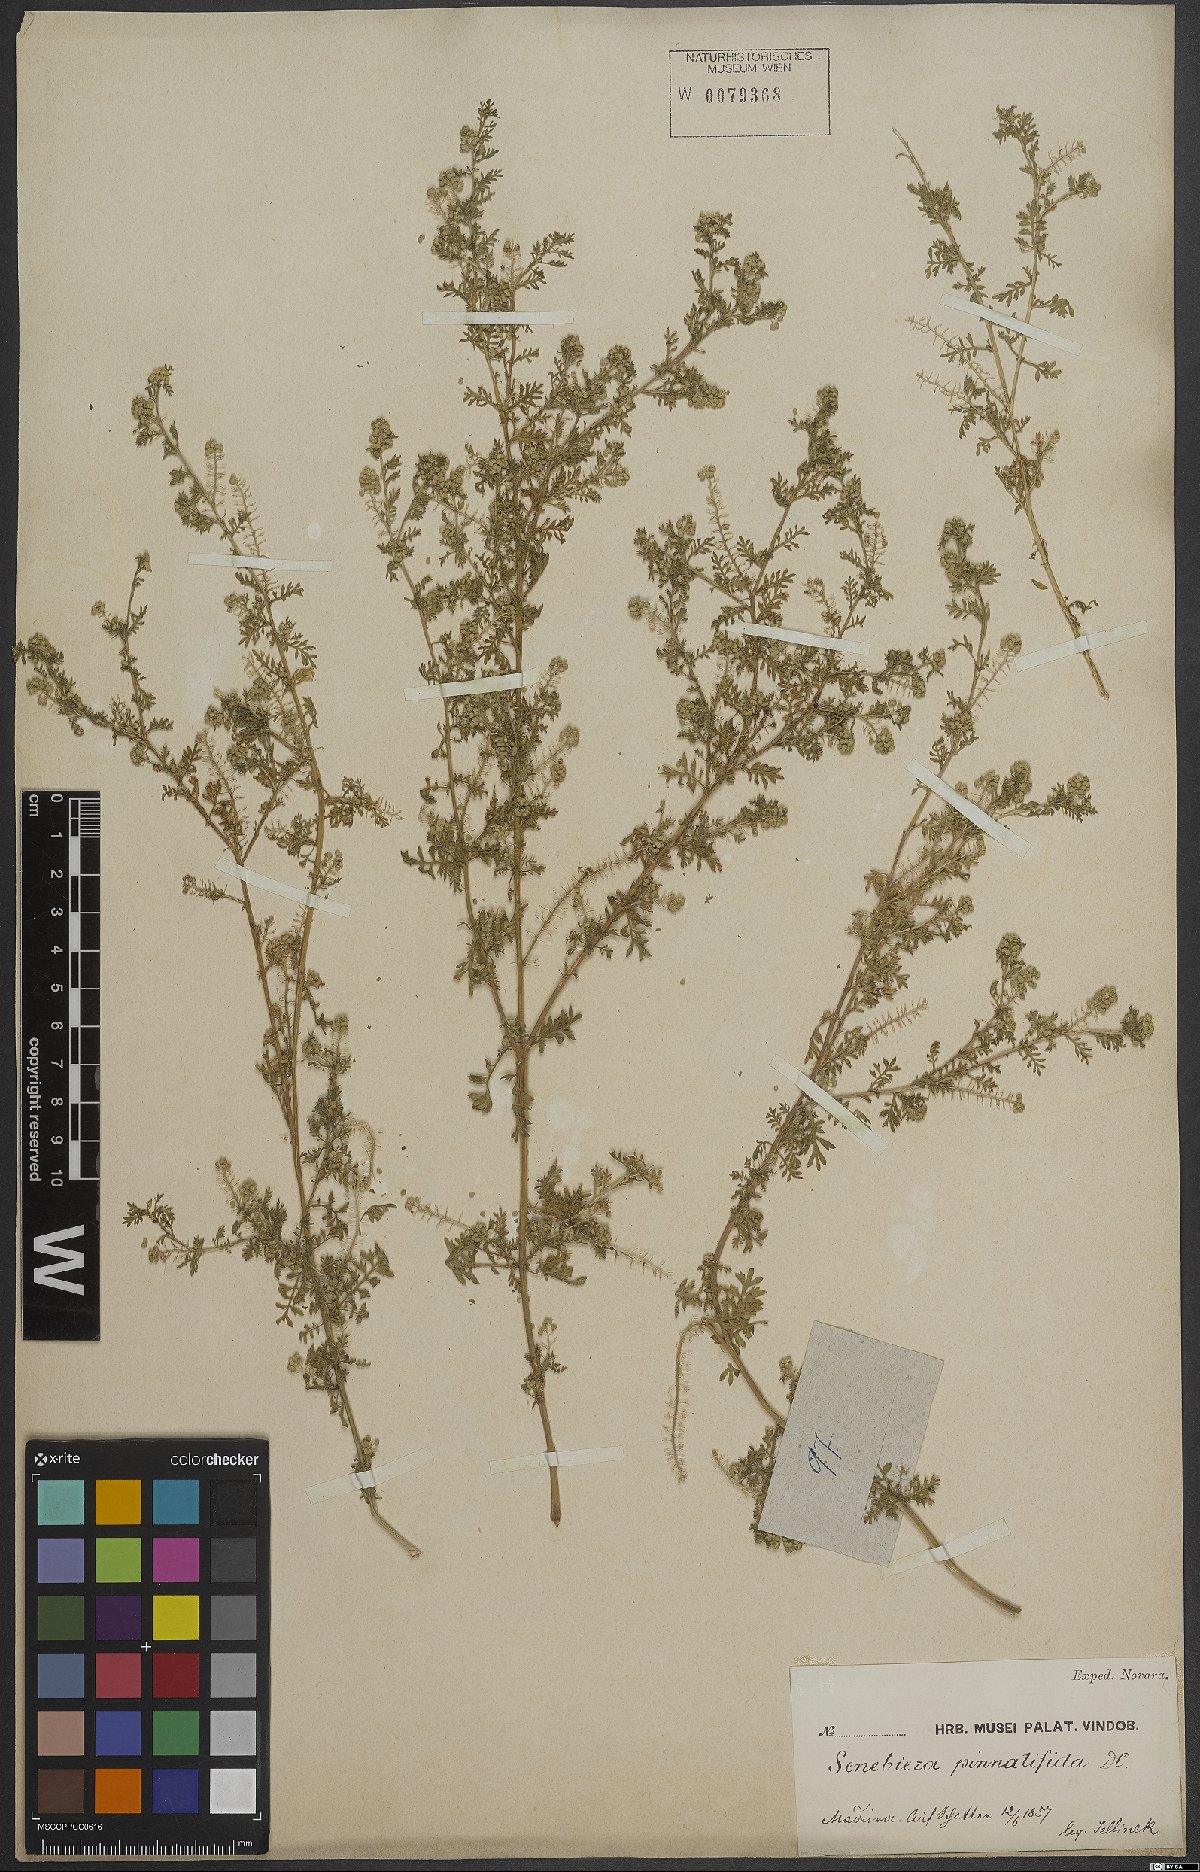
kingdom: Plantae
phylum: Tracheophyta
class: Magnoliopsida
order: Brassicales
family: Brassicaceae
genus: Lepidium
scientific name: Lepidium didymum
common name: Lesser swinecress
